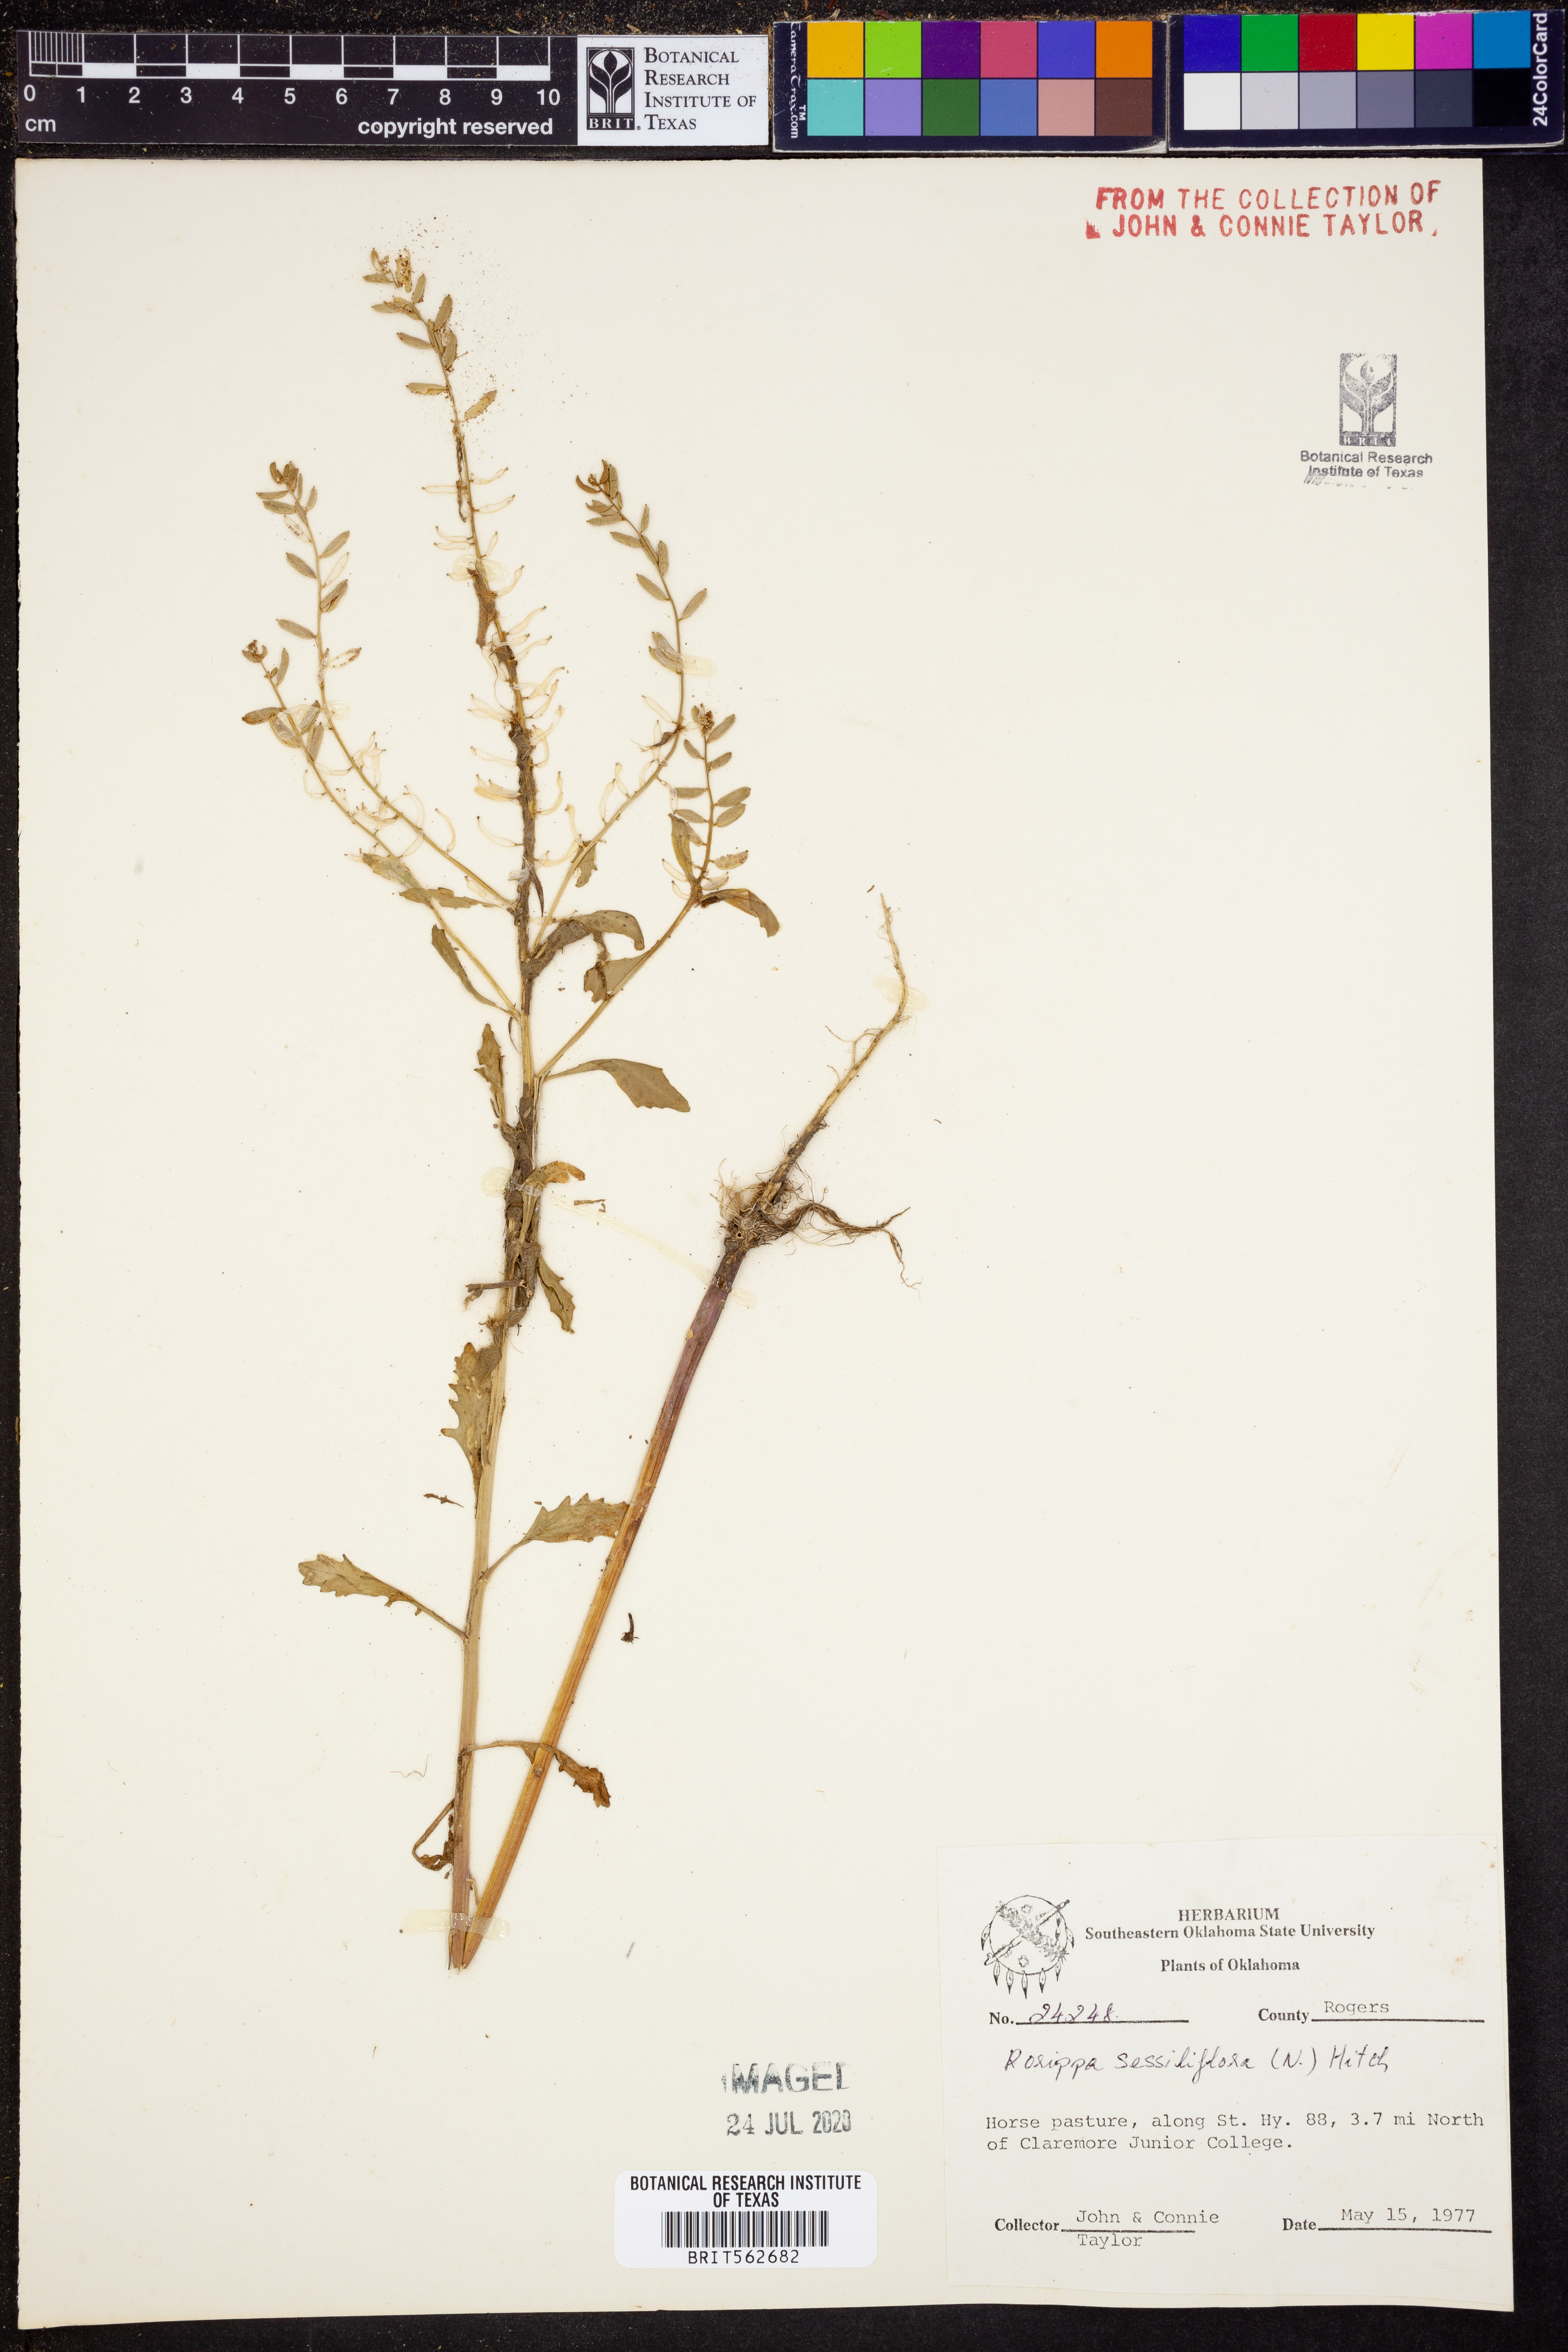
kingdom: Plantae
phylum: Tracheophyta
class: Magnoliopsida
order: Brassicales
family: Brassicaceae
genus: Rorippa
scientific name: Rorippa sessiliflora
